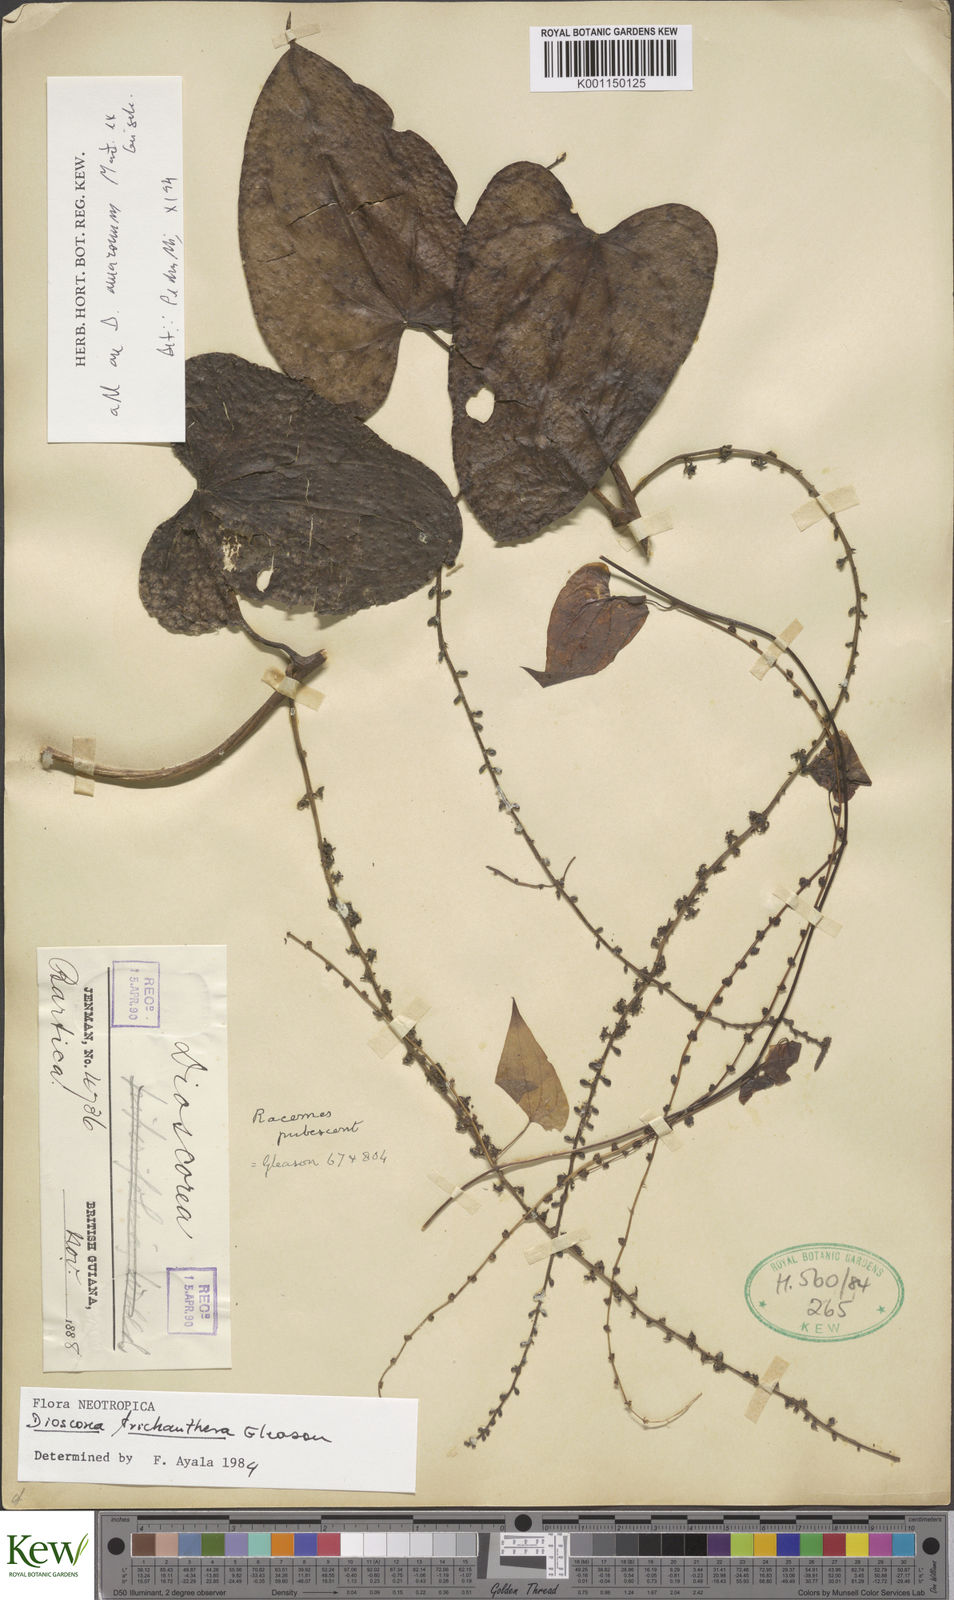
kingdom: Plantae
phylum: Tracheophyta
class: Liliopsida
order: Dioscoreales
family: Dioscoreaceae
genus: Dioscorea
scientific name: Dioscorea trichanthera
